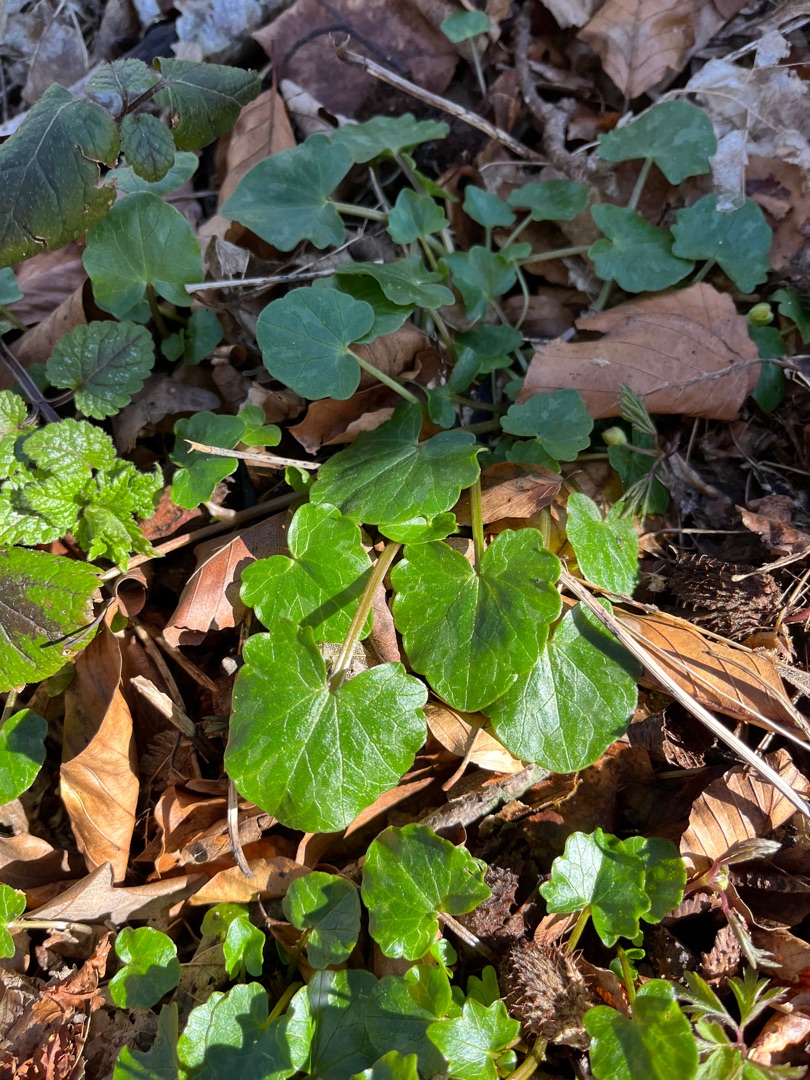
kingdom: Plantae
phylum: Tracheophyta
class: Magnoliopsida
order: Ranunculales
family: Ranunculaceae
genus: Ficaria
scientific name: Ficaria verna
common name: Vorterod
